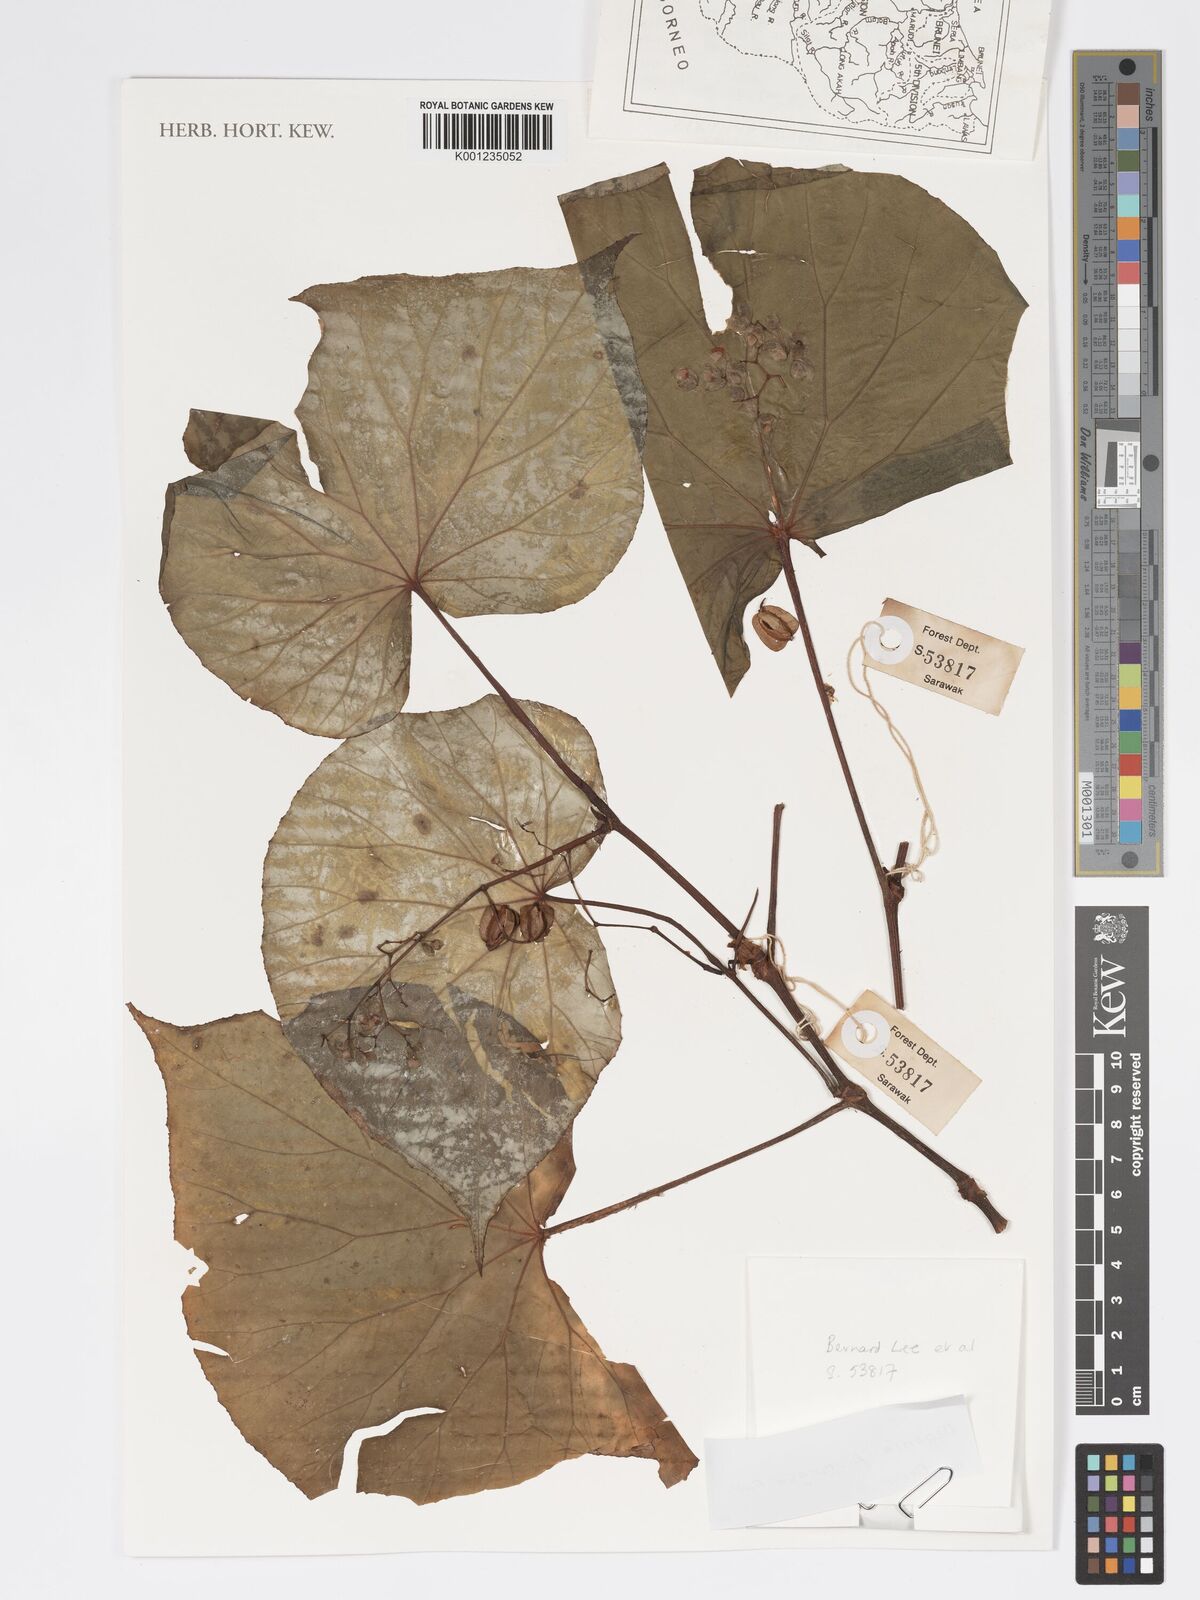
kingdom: Plantae
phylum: Tracheophyta
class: Magnoliopsida
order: Cucurbitales
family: Begoniaceae
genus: Begonia
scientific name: Begonia propinqua
